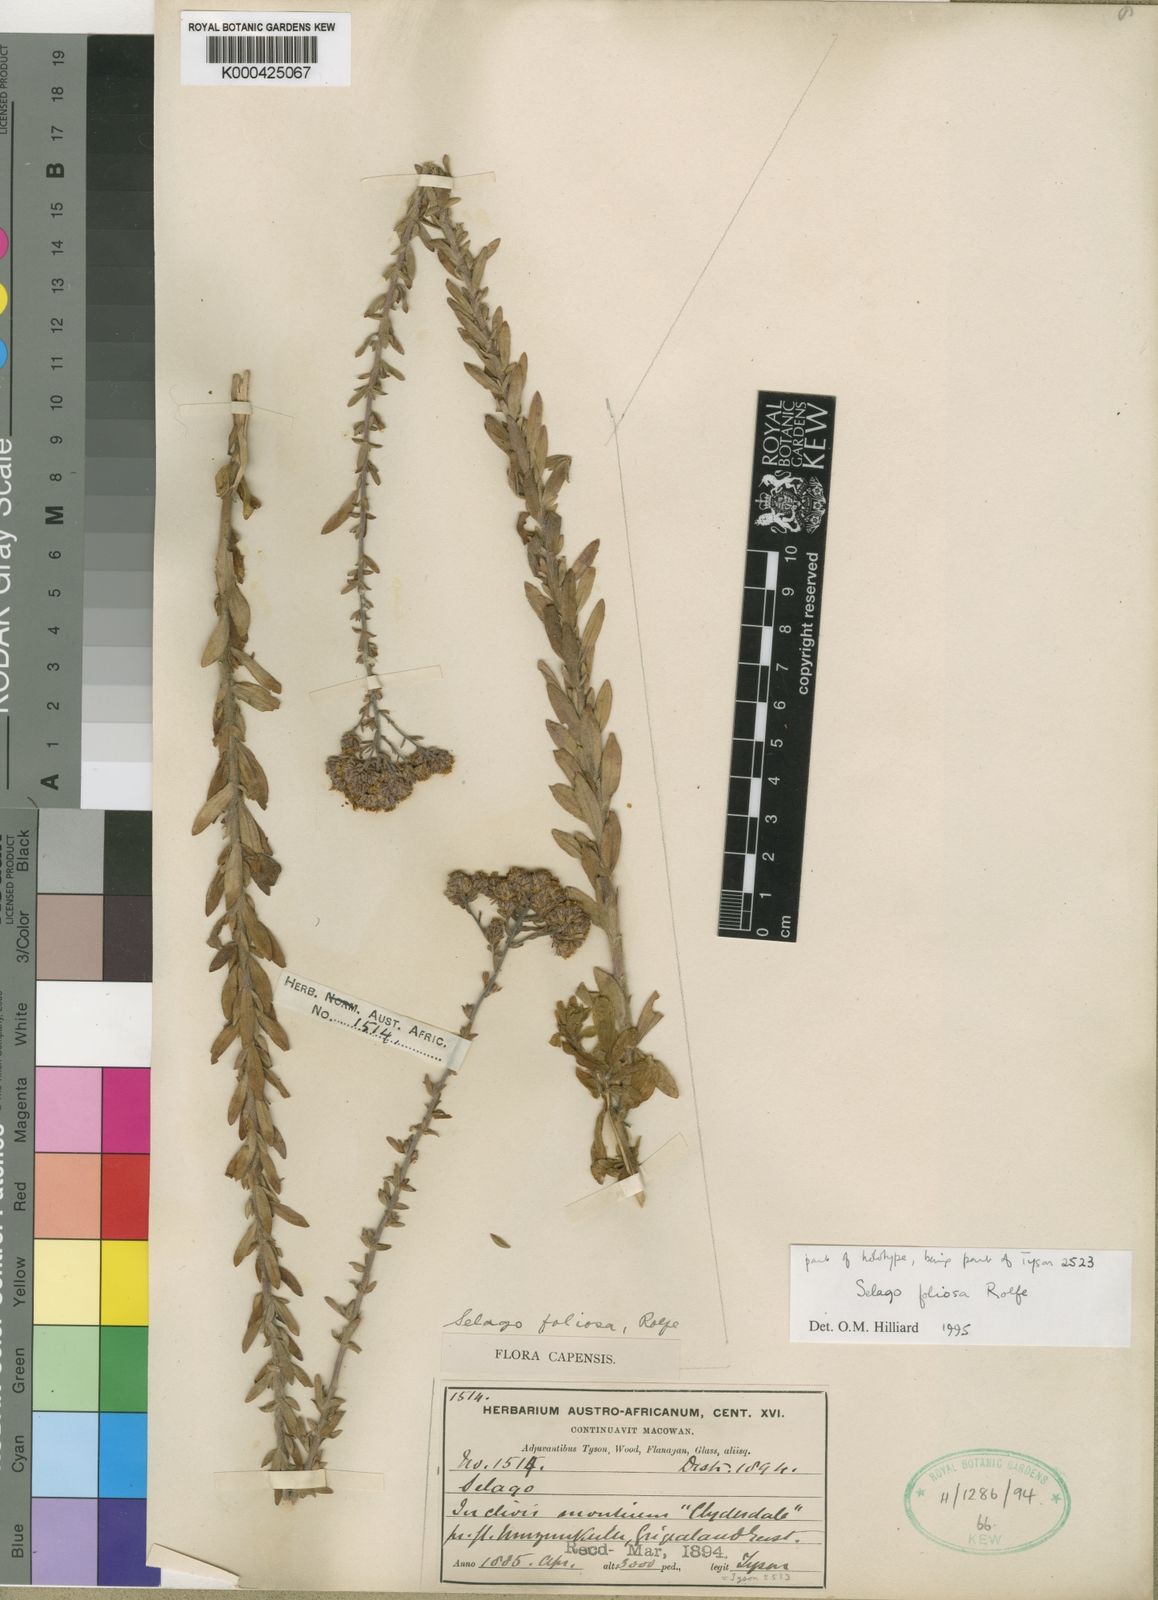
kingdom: Plantae
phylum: Tracheophyta
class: Magnoliopsida
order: Lamiales
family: Scrophulariaceae
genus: Selago
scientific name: Selago foliosa
